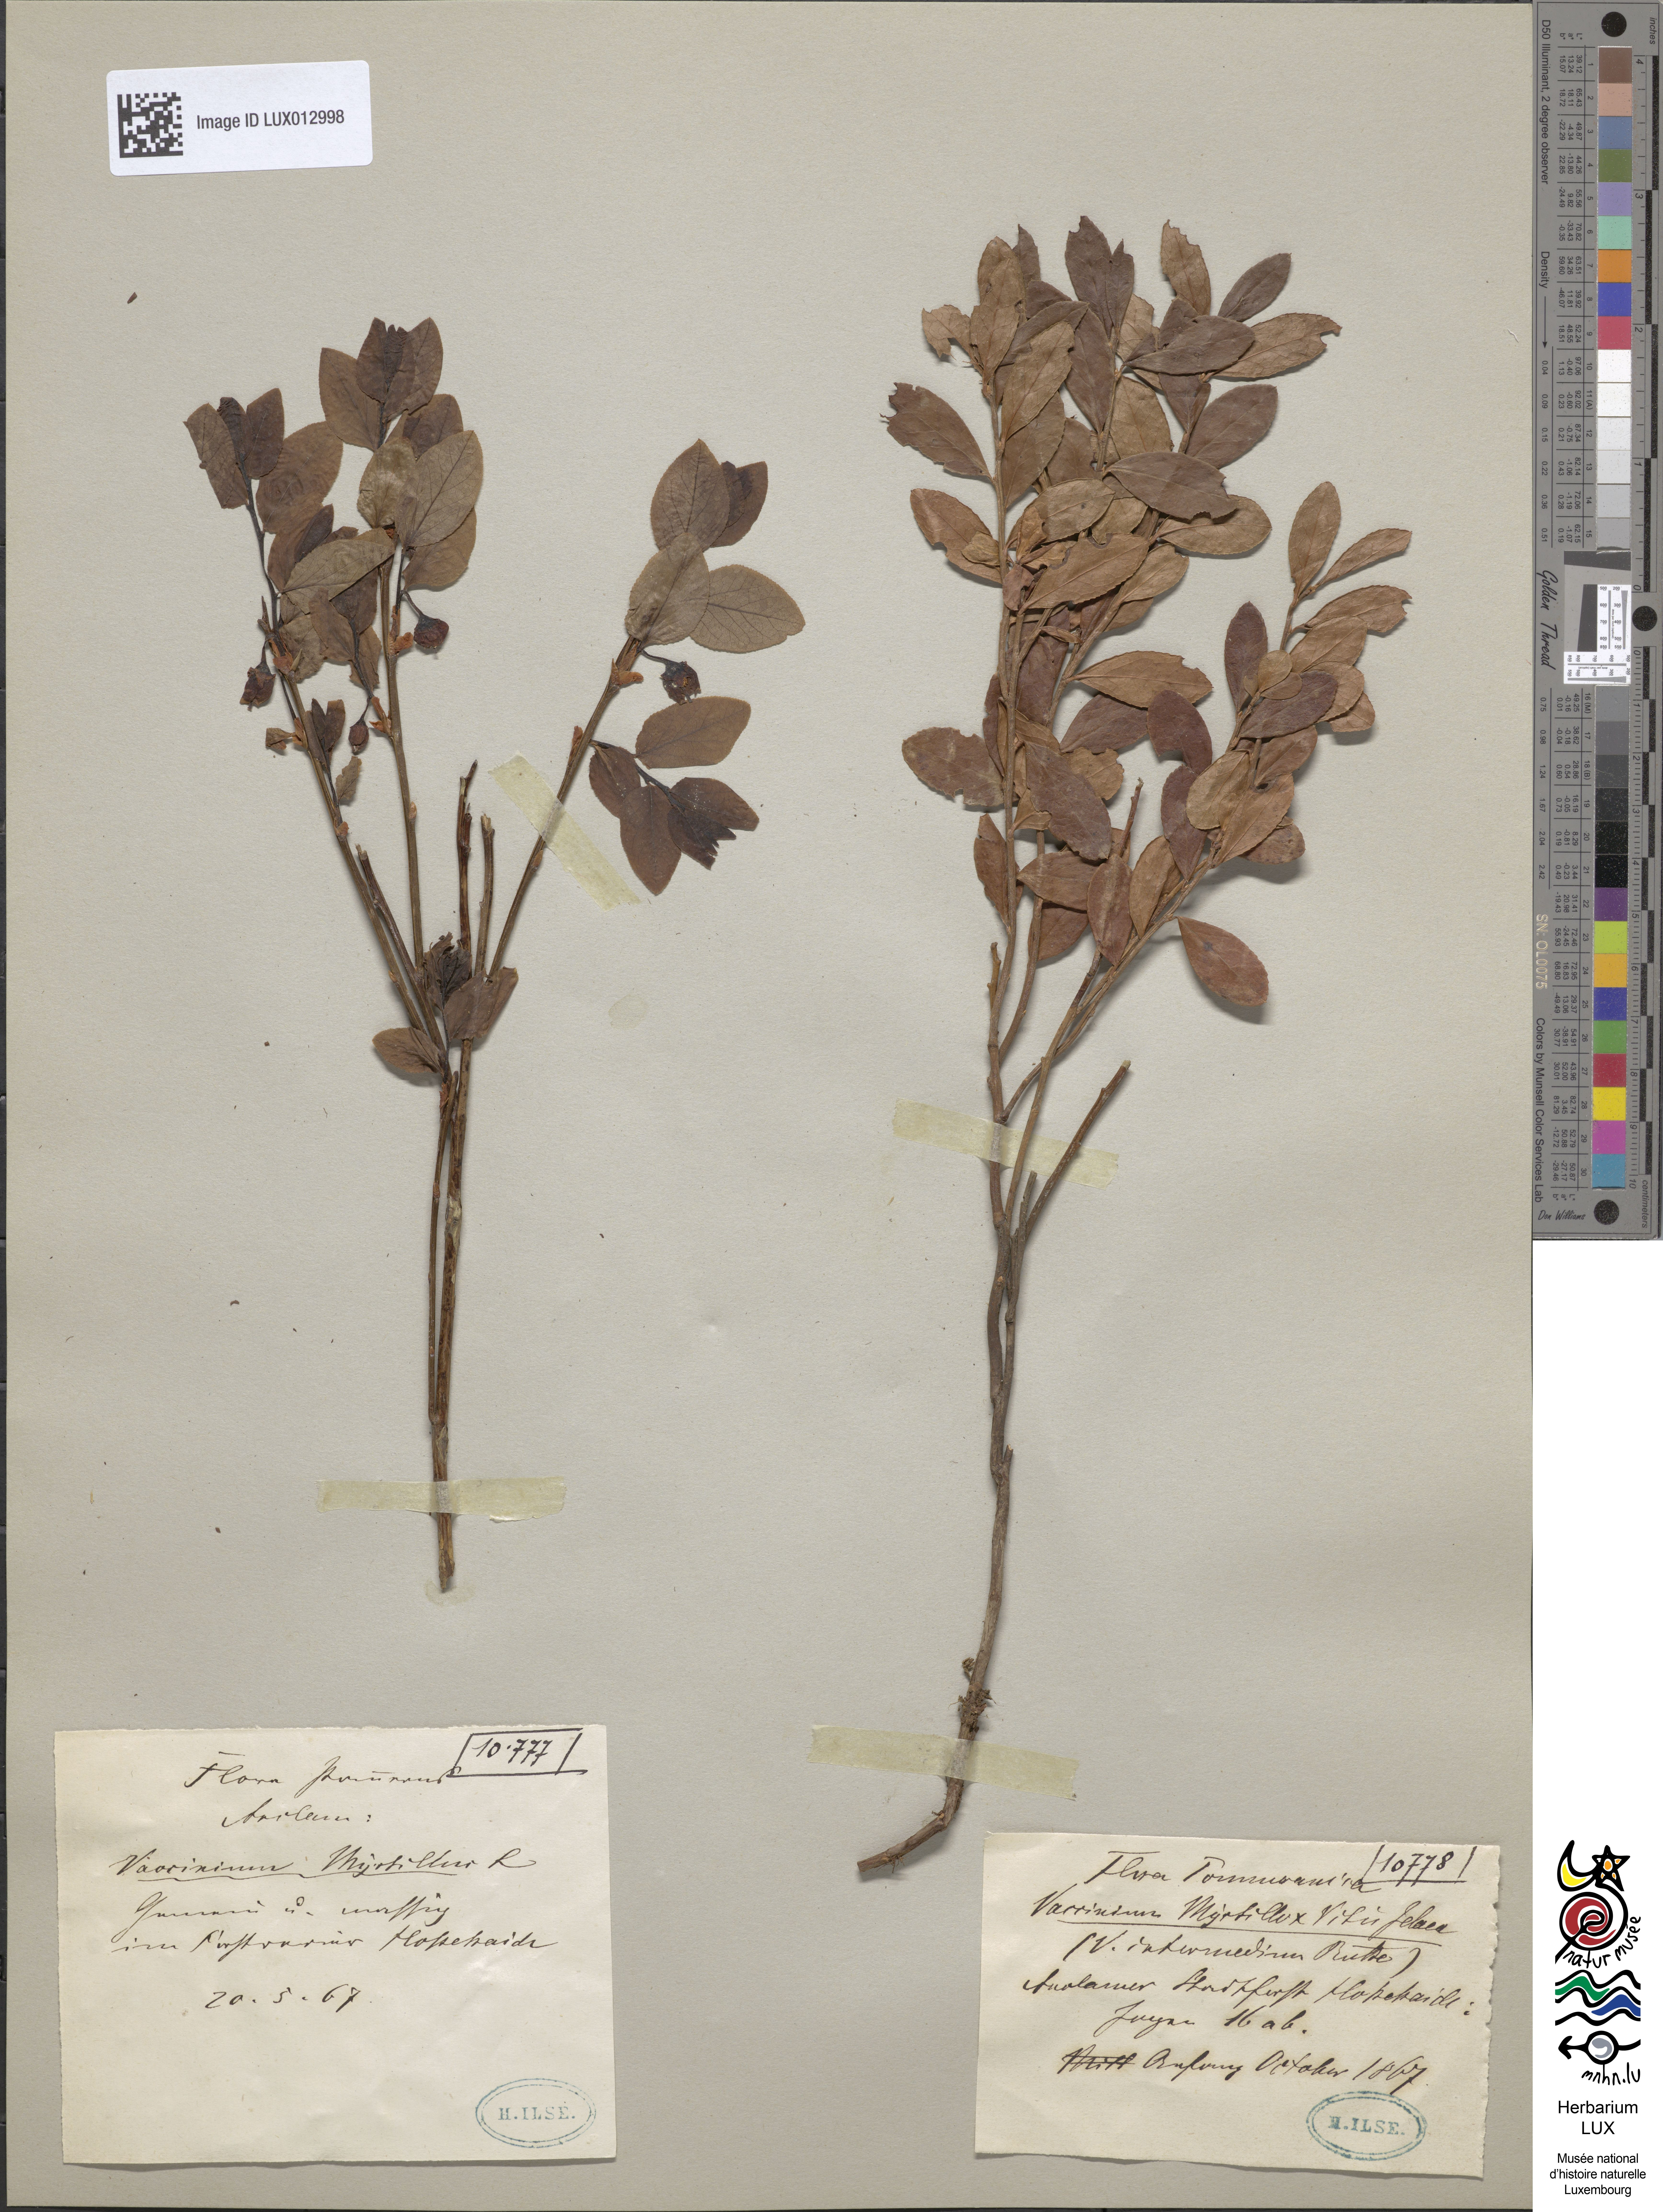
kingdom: Plantae
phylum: Tracheophyta
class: Magnoliopsida
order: Ericales
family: Ericaceae
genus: Vaccinium
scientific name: Vaccinium intermedium
